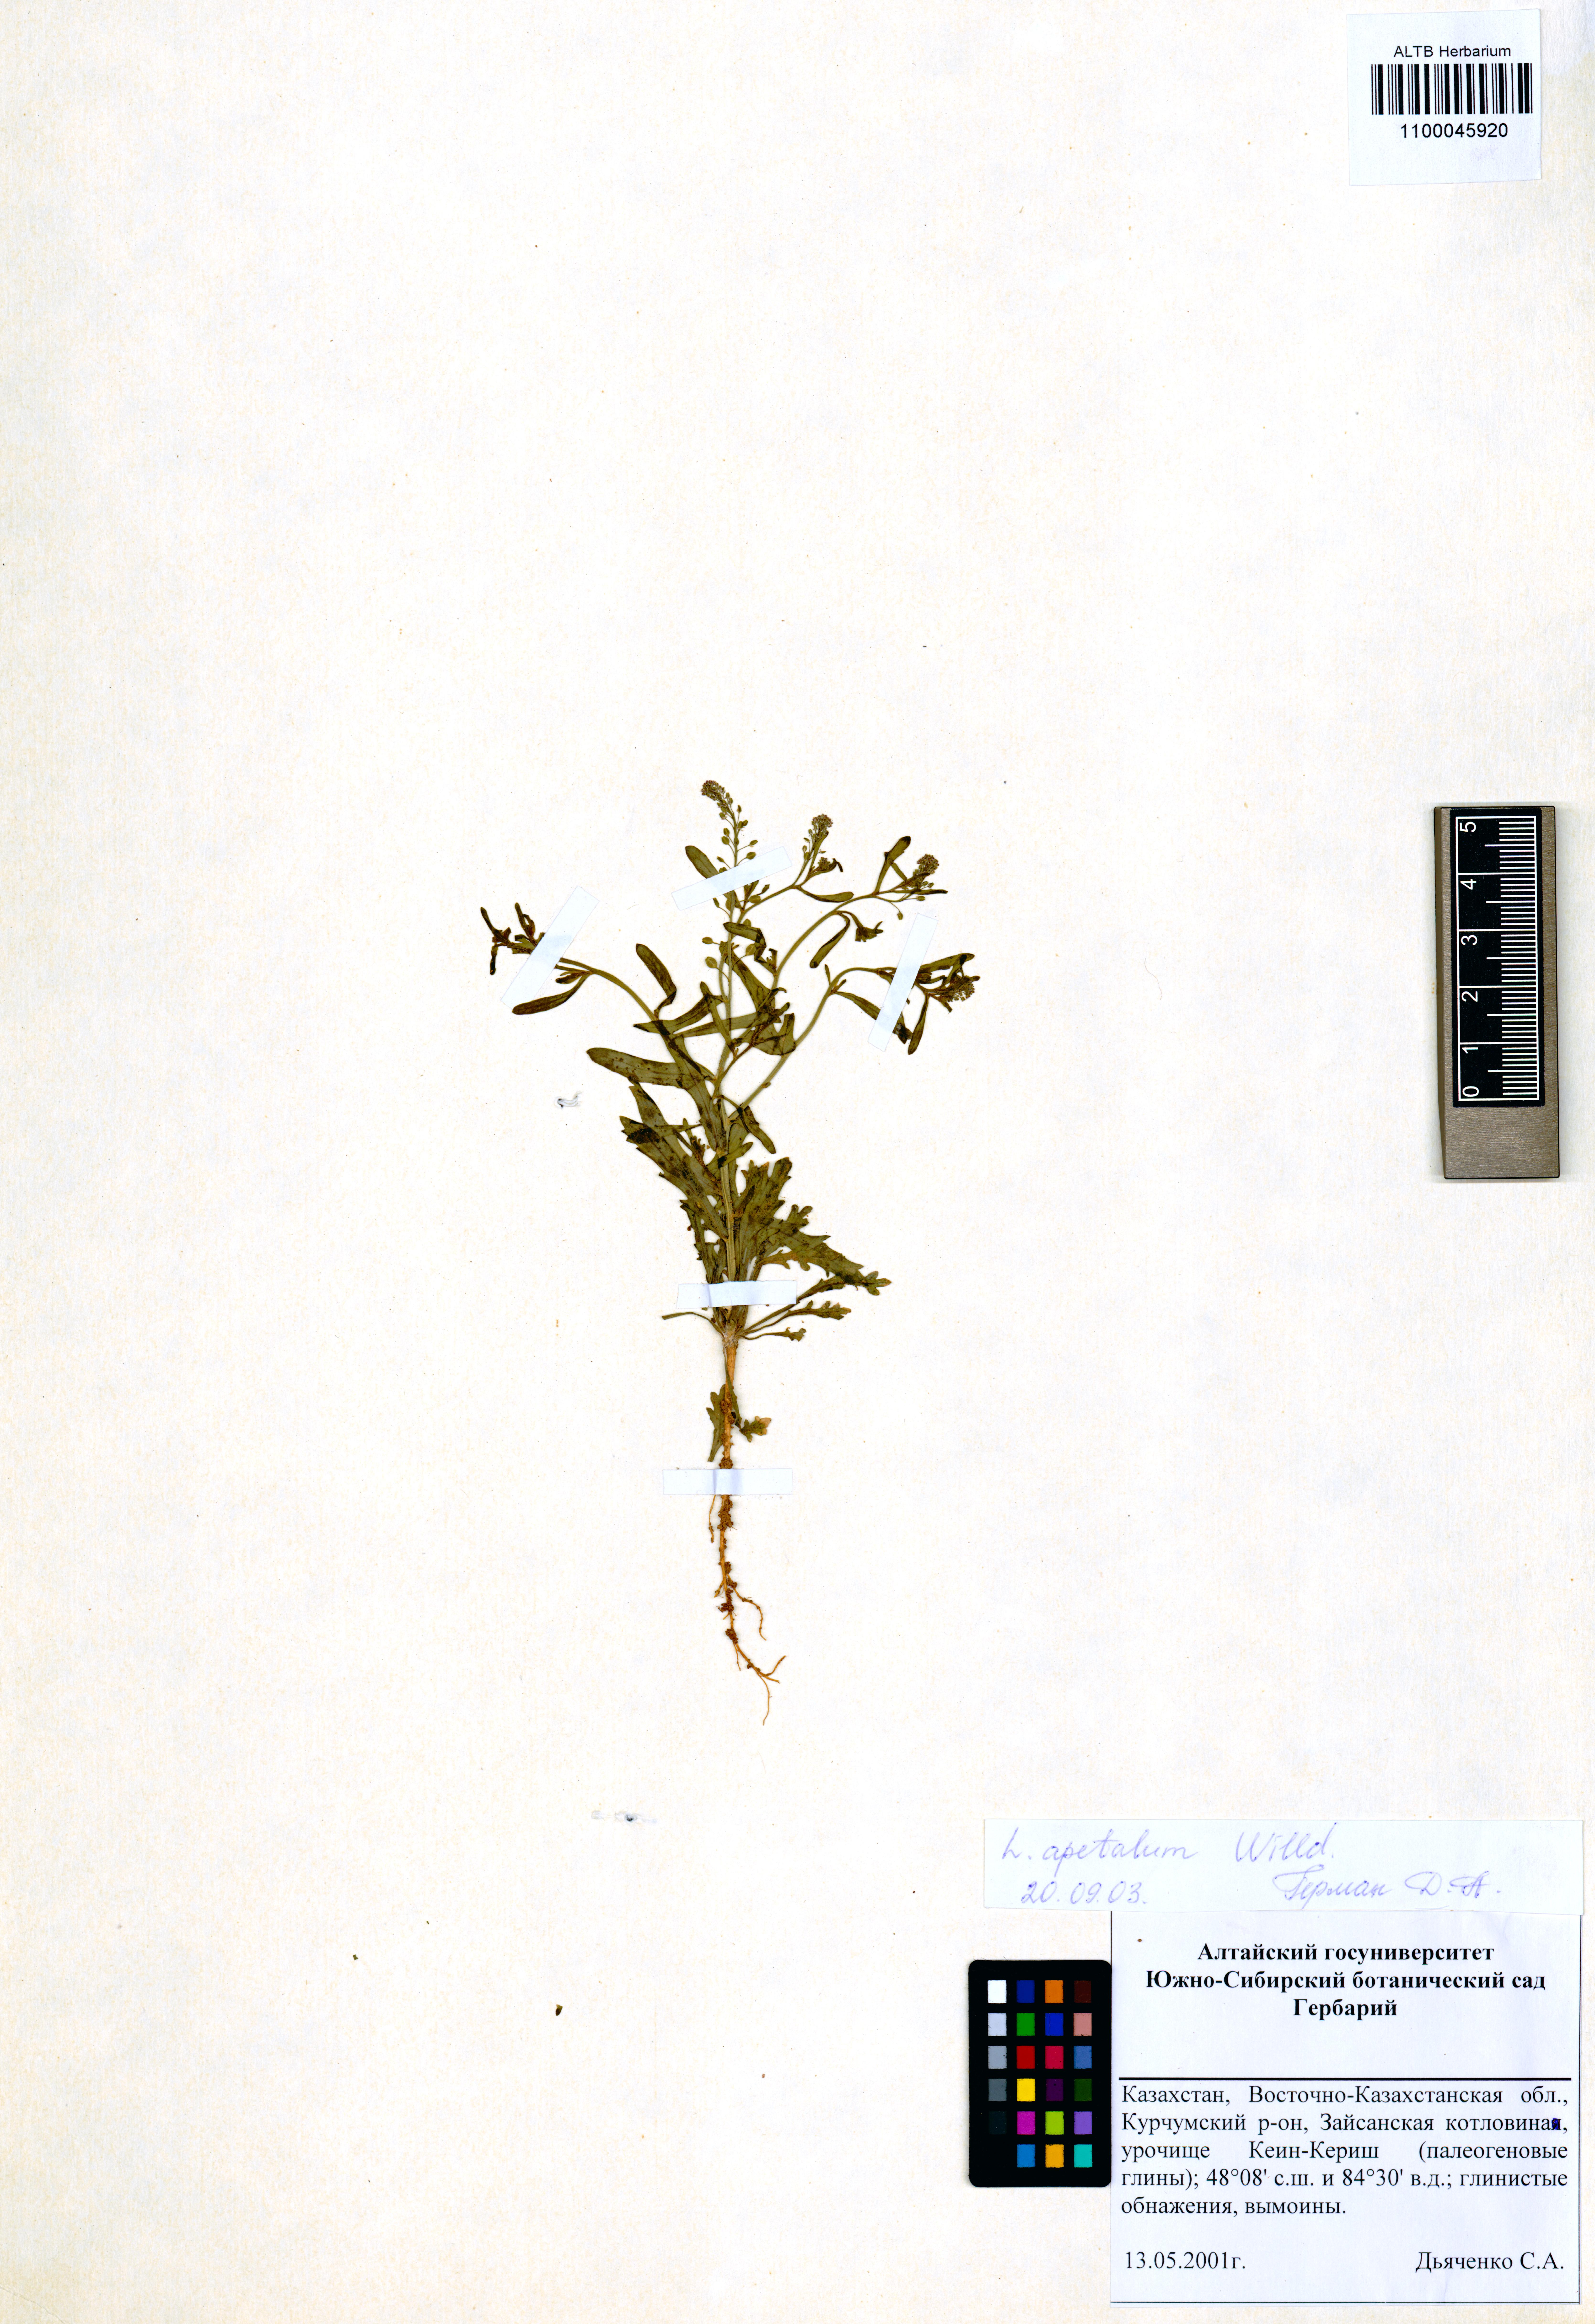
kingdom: Plantae
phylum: Tracheophyta
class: Magnoliopsida
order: Brassicales
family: Brassicaceae
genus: Lepidium
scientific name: Lepidium densiflorum
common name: Miner's pepperwort
